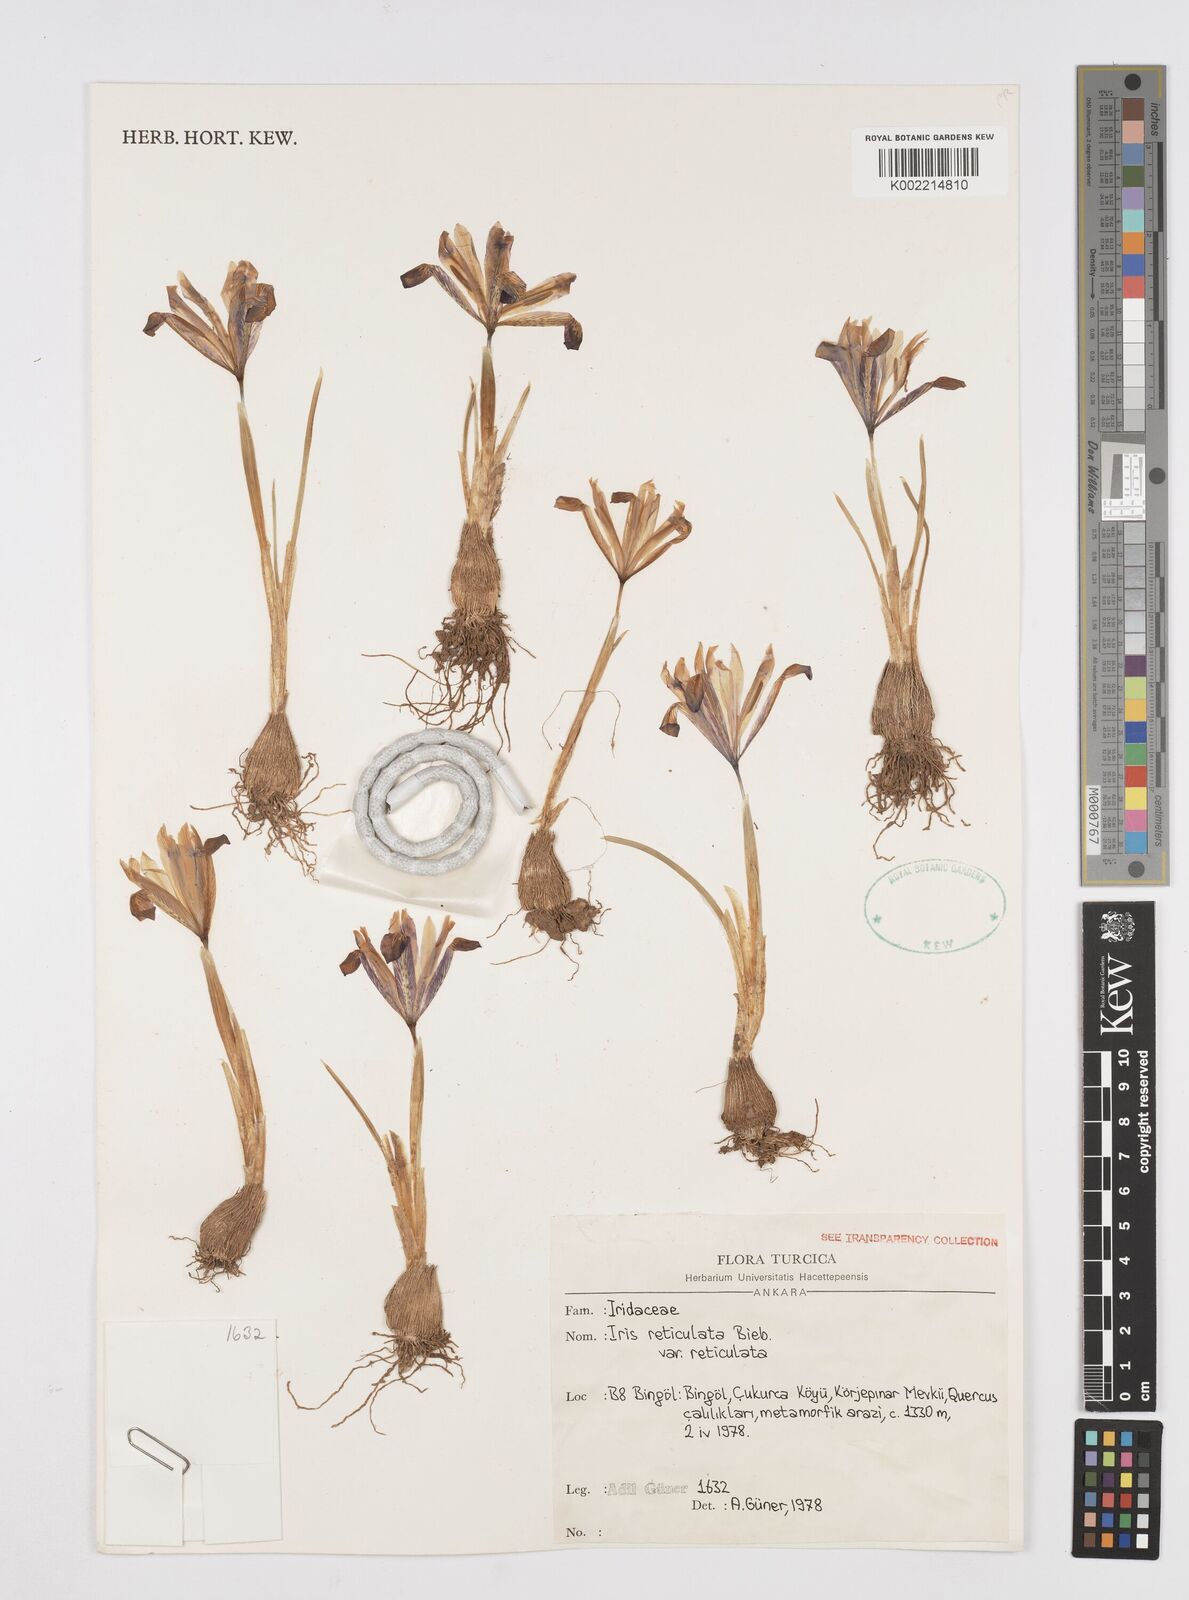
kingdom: Plantae
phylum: Tracheophyta
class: Liliopsida
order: Asparagales
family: Iridaceae
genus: Iris
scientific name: Iris reticulata
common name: Netted iris
